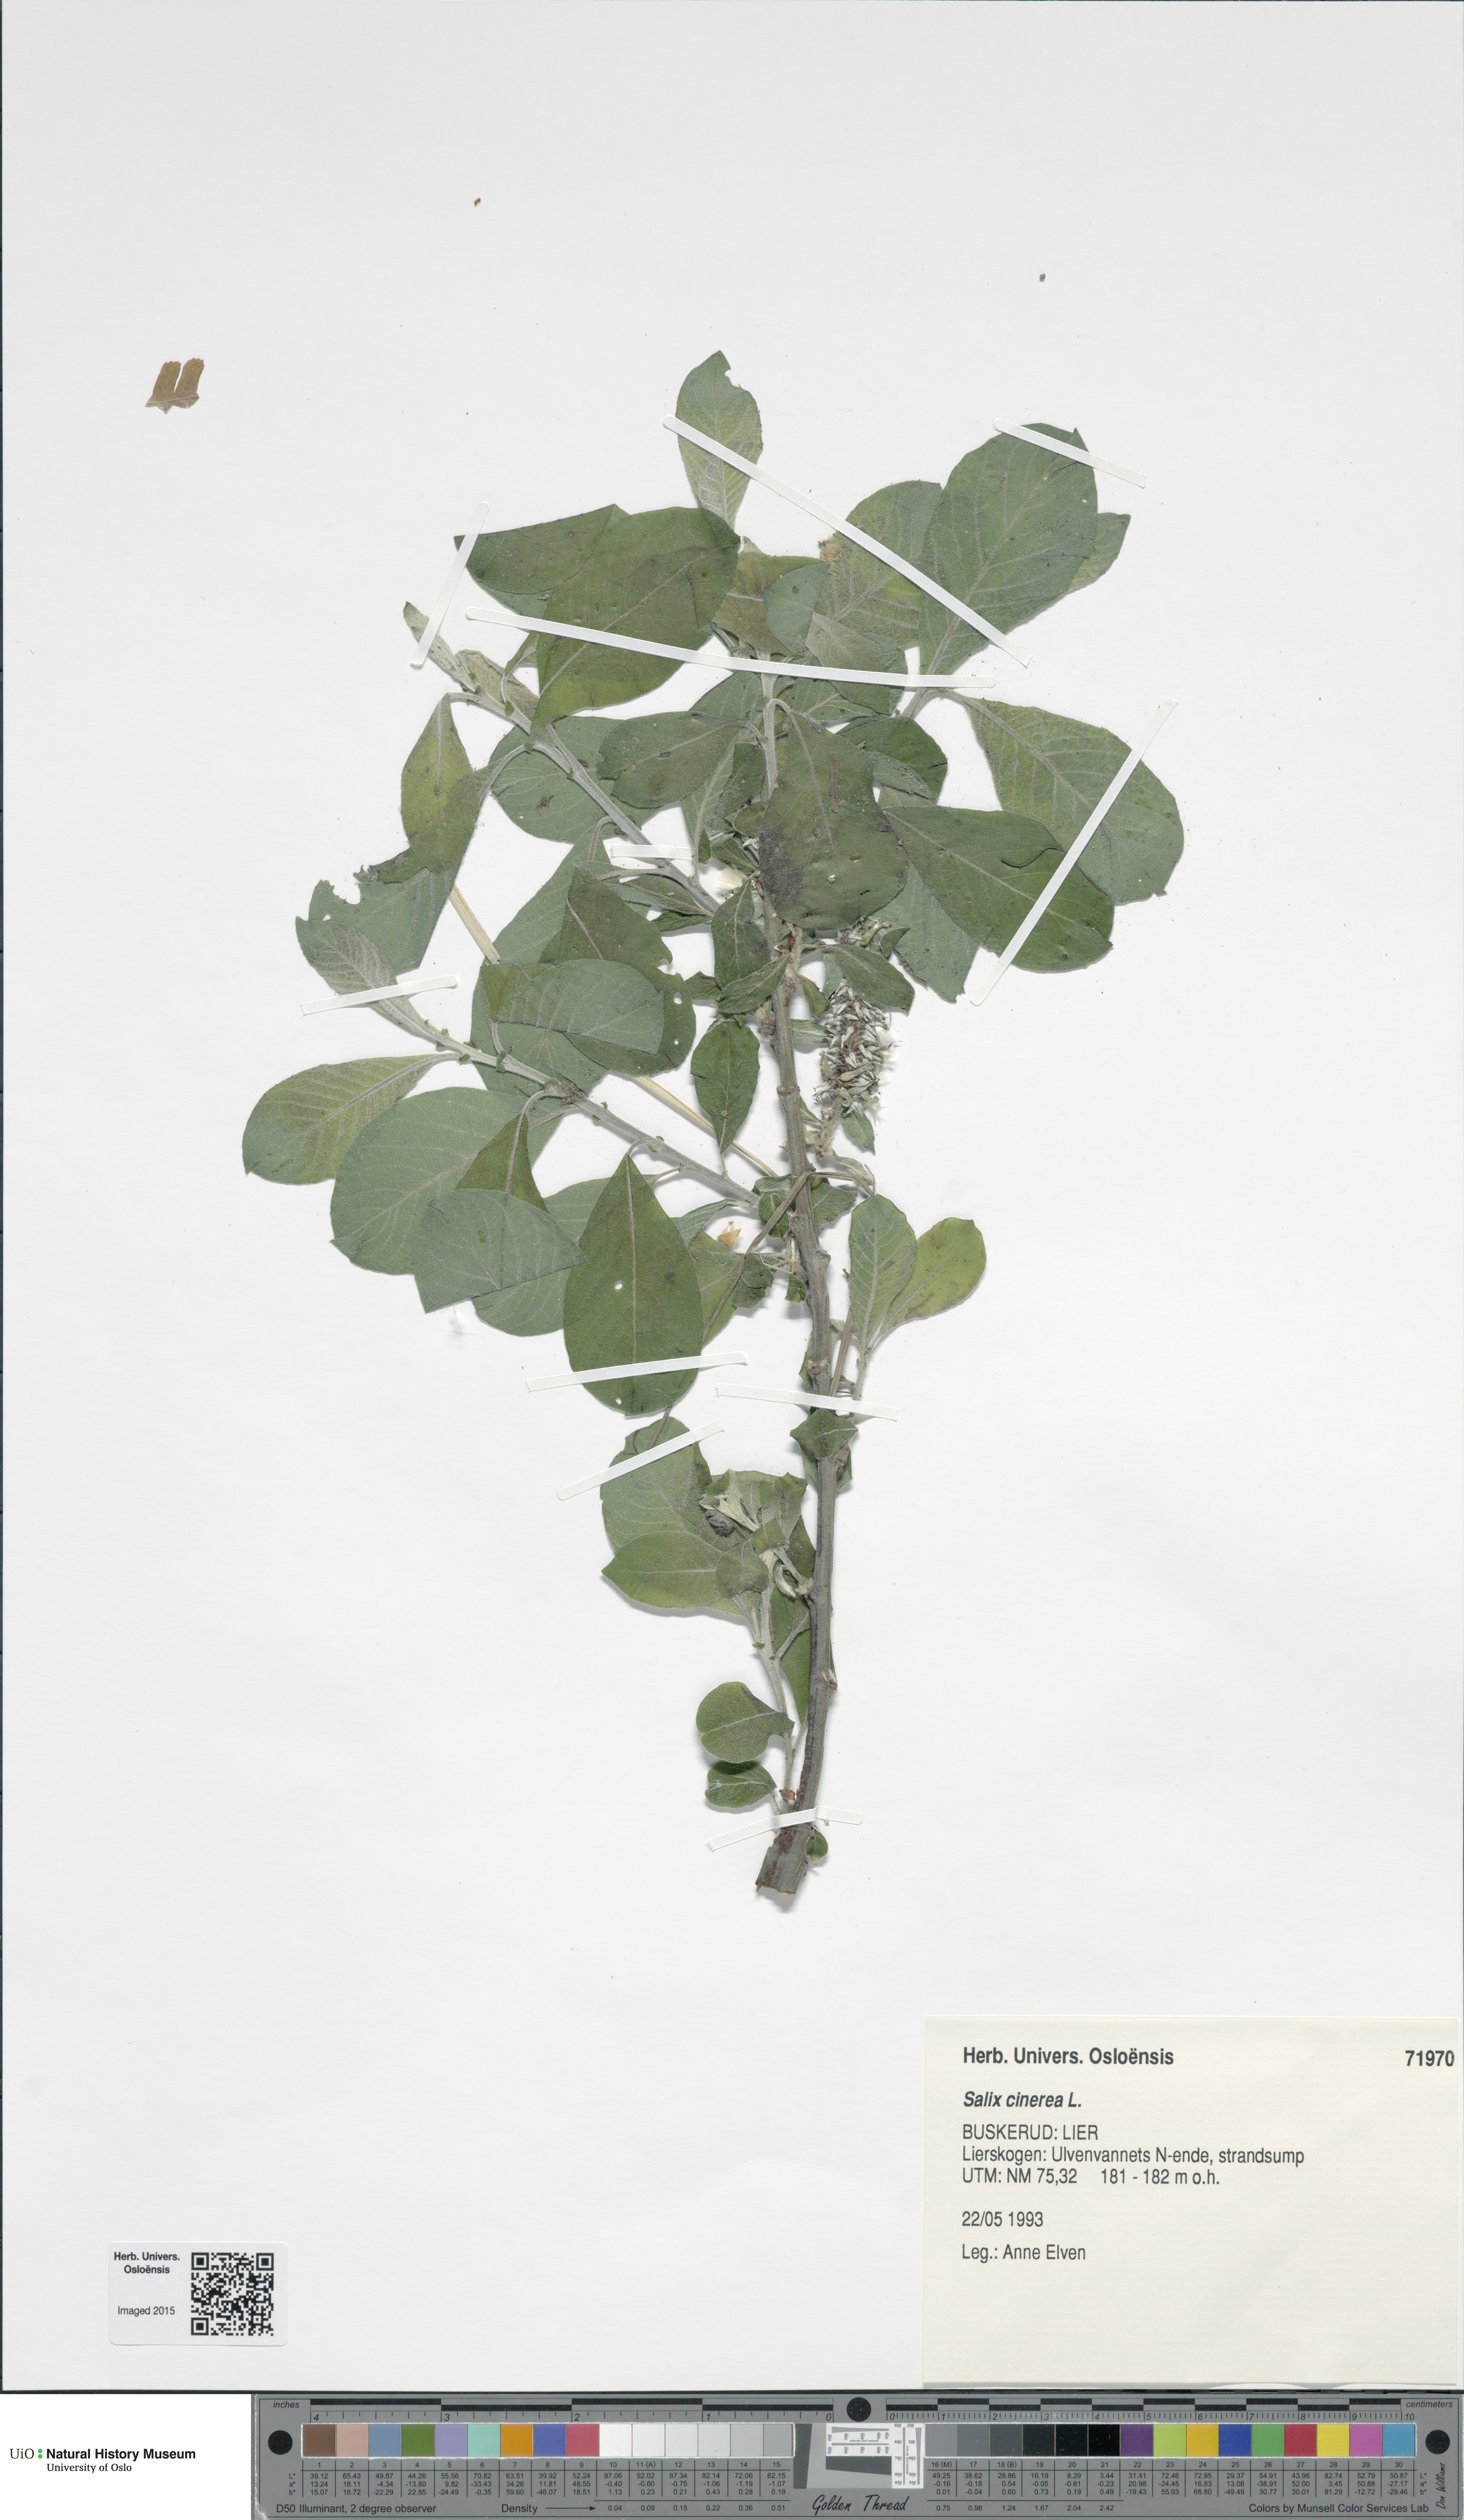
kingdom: Plantae
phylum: Tracheophyta
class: Magnoliopsida
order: Malpighiales
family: Salicaceae
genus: Salix
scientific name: Salix cinerea
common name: Common sallow
